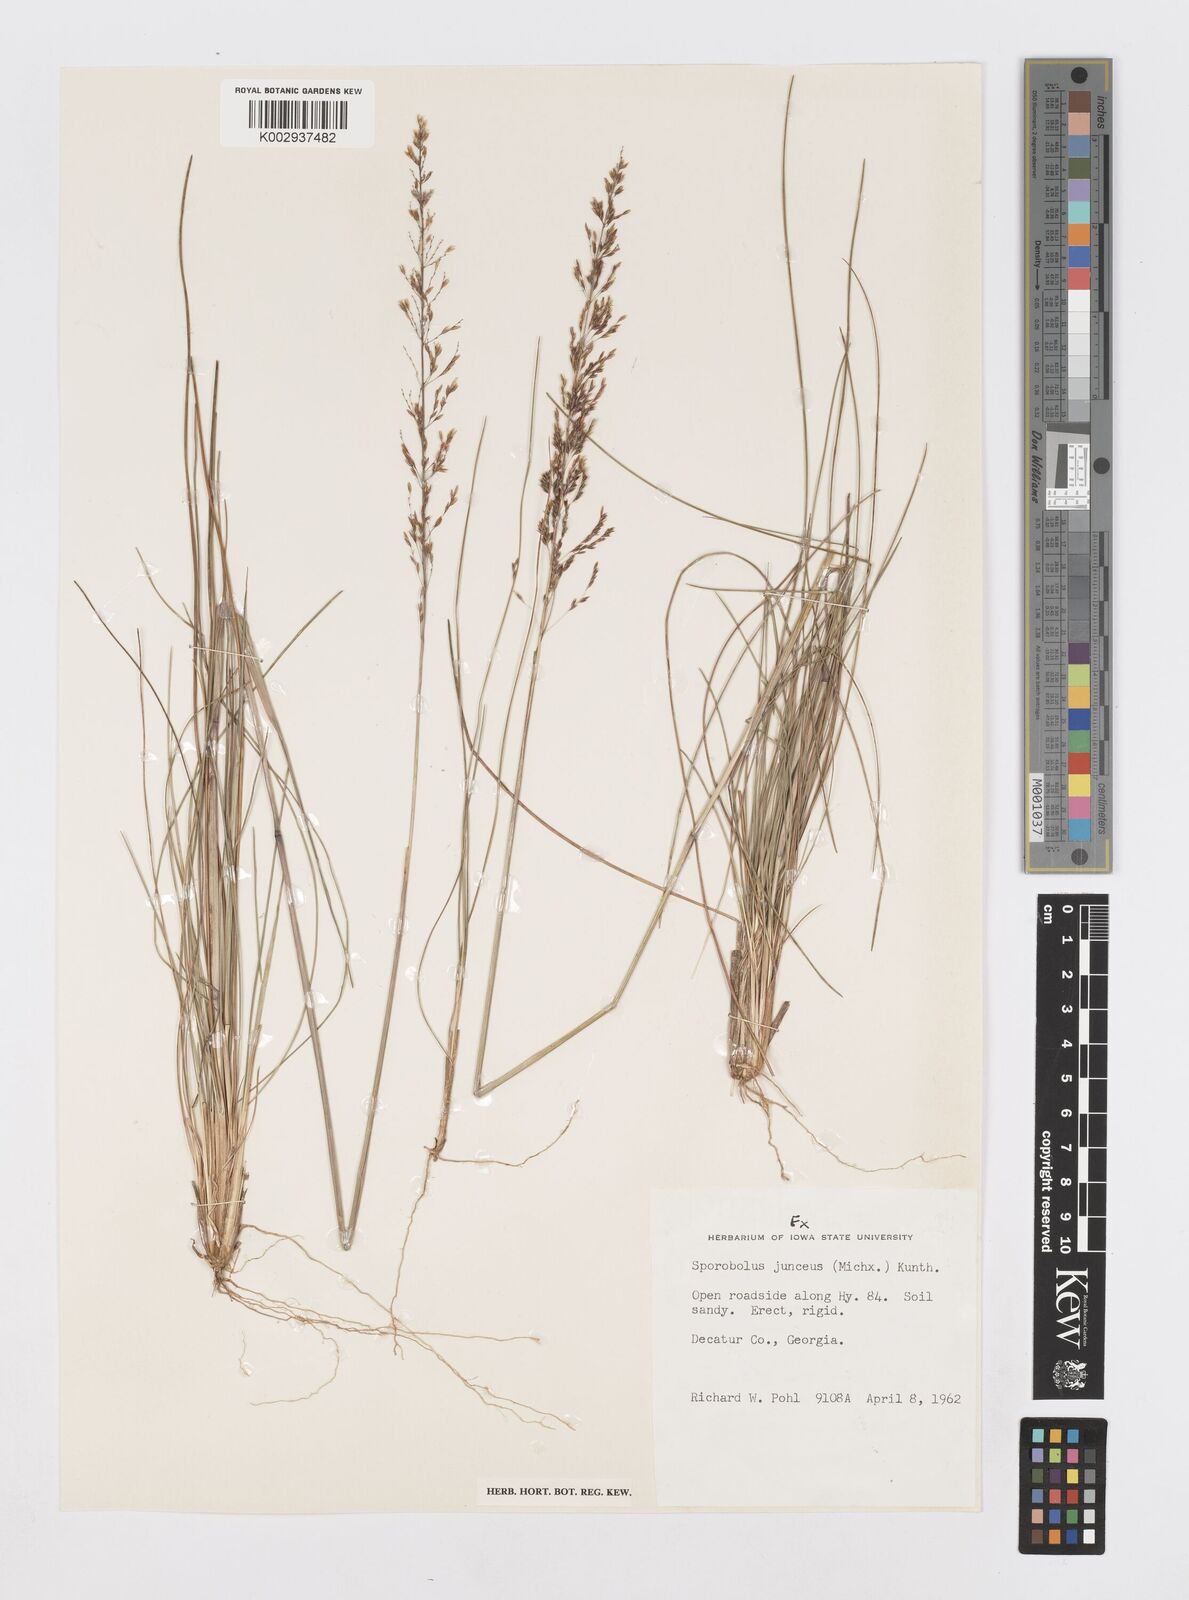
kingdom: Plantae
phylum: Tracheophyta
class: Liliopsida
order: Poales
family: Poaceae
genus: Sporobolus
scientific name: Sporobolus junceus
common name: Lizard grass
